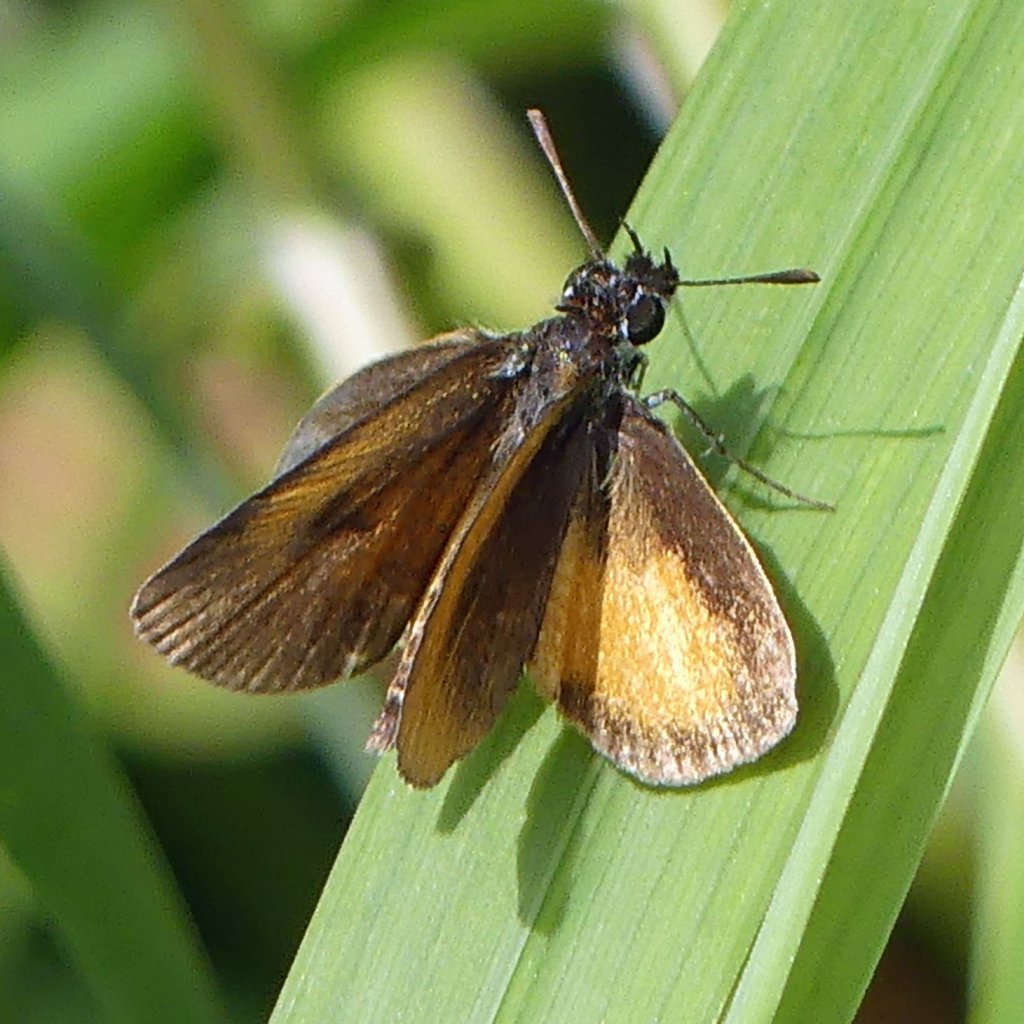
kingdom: Animalia
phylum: Arthropoda
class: Insecta
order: Lepidoptera
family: Hesperiidae
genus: Ancyloxypha
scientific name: Ancyloxypha numitor
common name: Least Skipper
